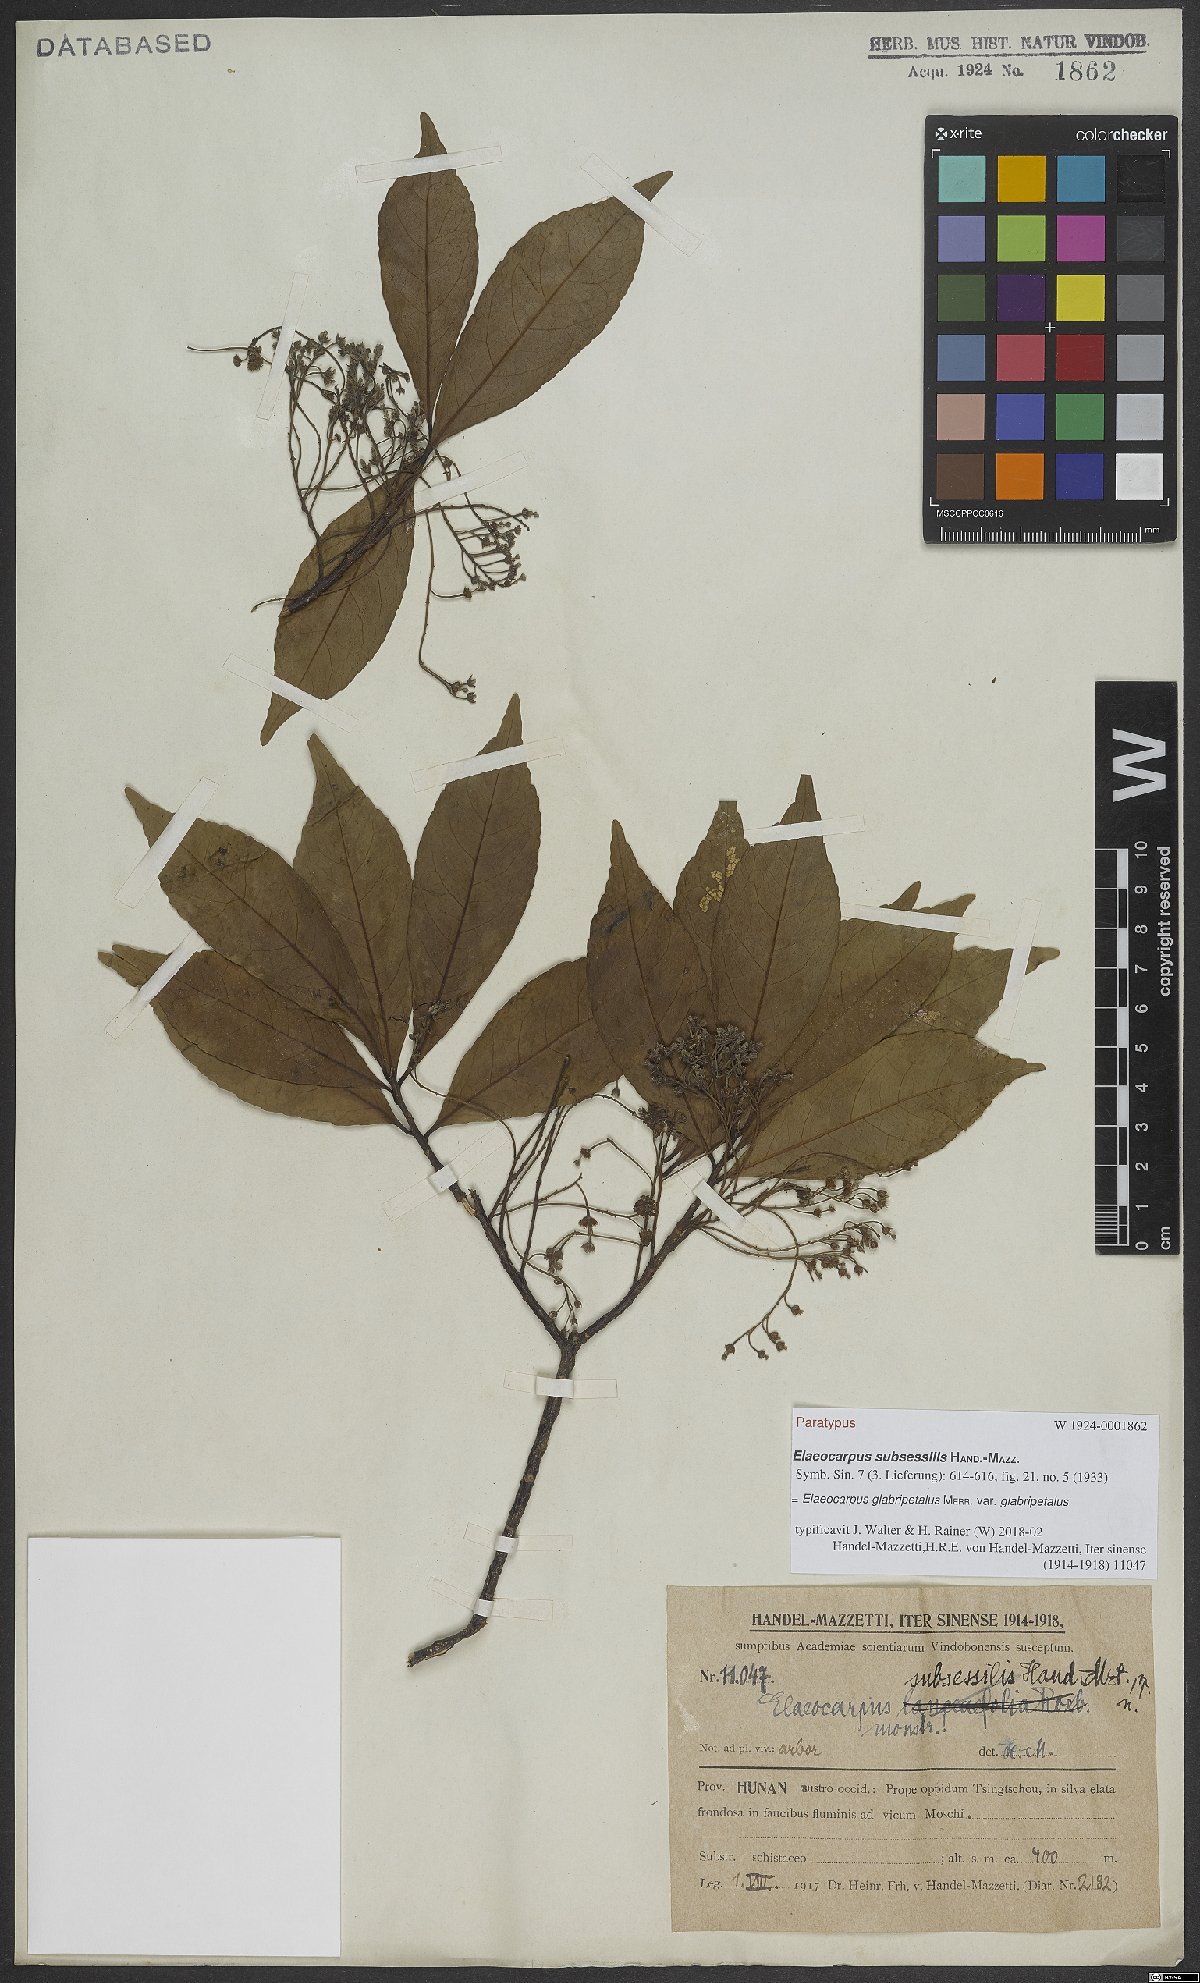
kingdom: Plantae
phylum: Tracheophyta
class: Magnoliopsida
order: Oxalidales
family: Elaeocarpaceae
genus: Elaeocarpus
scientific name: Elaeocarpus glabripetalus
